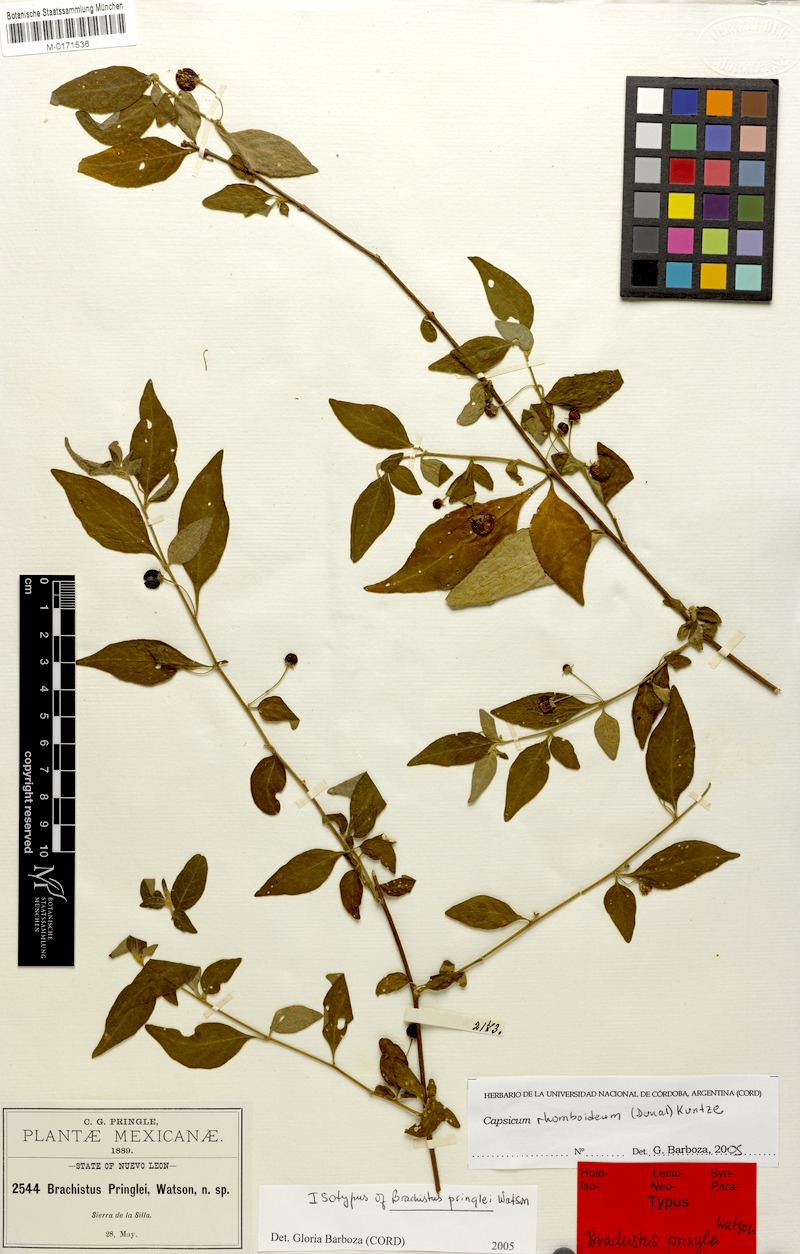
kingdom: Plantae
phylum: Tracheophyta
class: Magnoliopsida
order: Solanales
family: Solanaceae
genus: Capsicum
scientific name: Capsicum rhomboideum
